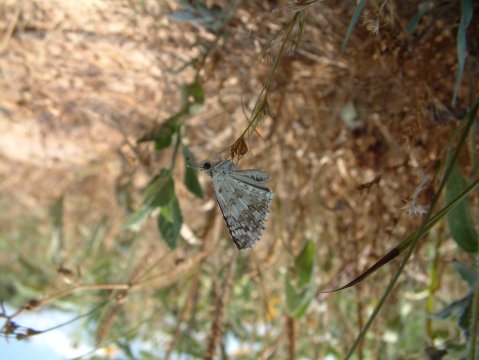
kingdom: Animalia
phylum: Arthropoda
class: Insecta
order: Lepidoptera
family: Hesperiidae
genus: Pyrgus
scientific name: Pyrgus communis
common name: Common Checkered-Skipper
